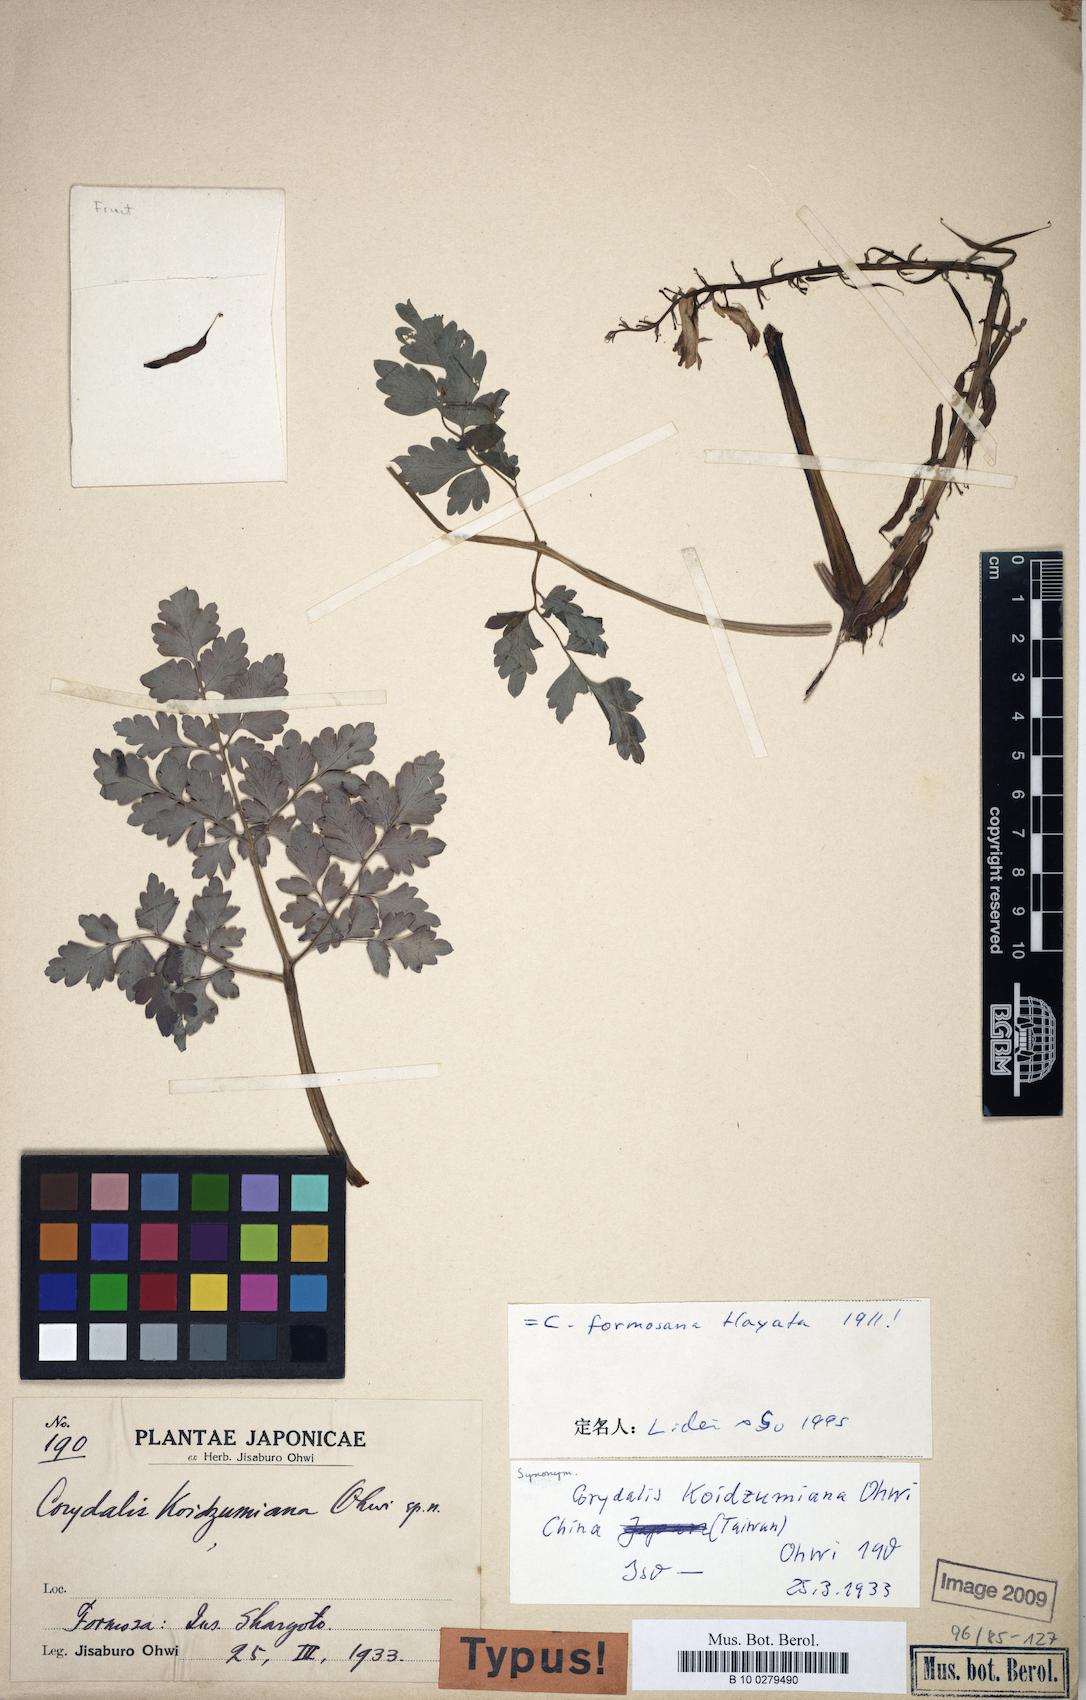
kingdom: Plantae
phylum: Tracheophyta
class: Magnoliopsida
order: Ranunculales
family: Papaveraceae
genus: Corydalis
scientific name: Corydalis balansae
